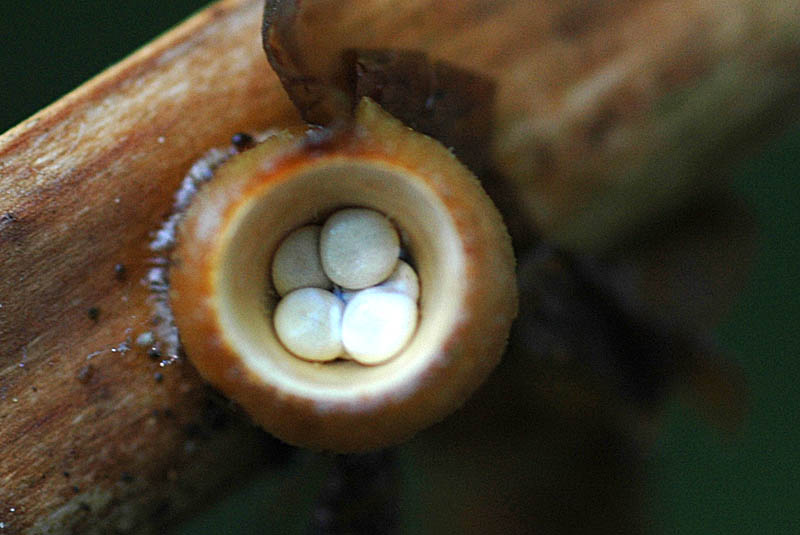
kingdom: Fungi
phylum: Basidiomycota
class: Agaricomycetes
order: Agaricales
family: Nidulariaceae
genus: Crucibulum
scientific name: Crucibulum crucibuliforme
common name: krukkesvamp
